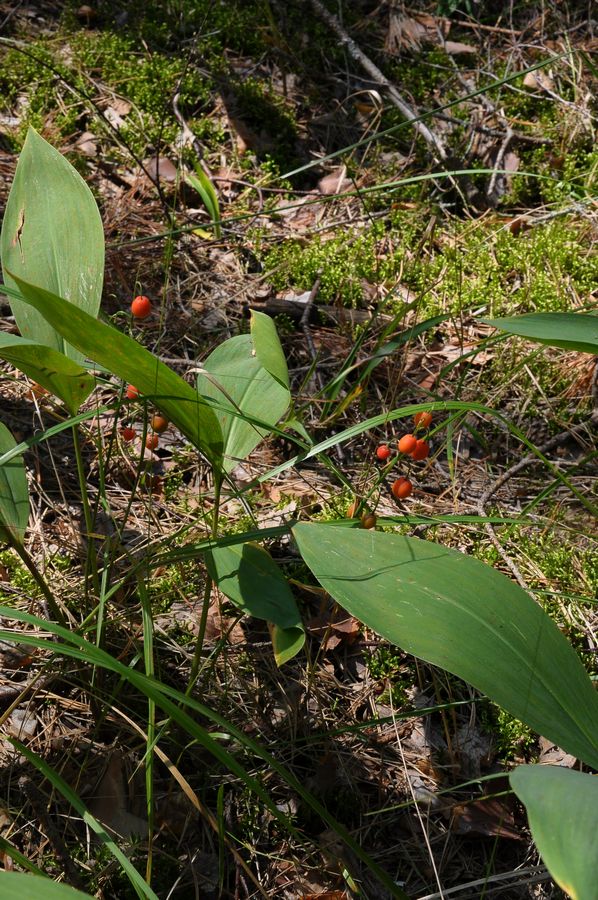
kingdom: Plantae
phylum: Tracheophyta
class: Liliopsida
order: Asparagales
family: Asparagaceae
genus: Convallaria
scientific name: Convallaria majalis
